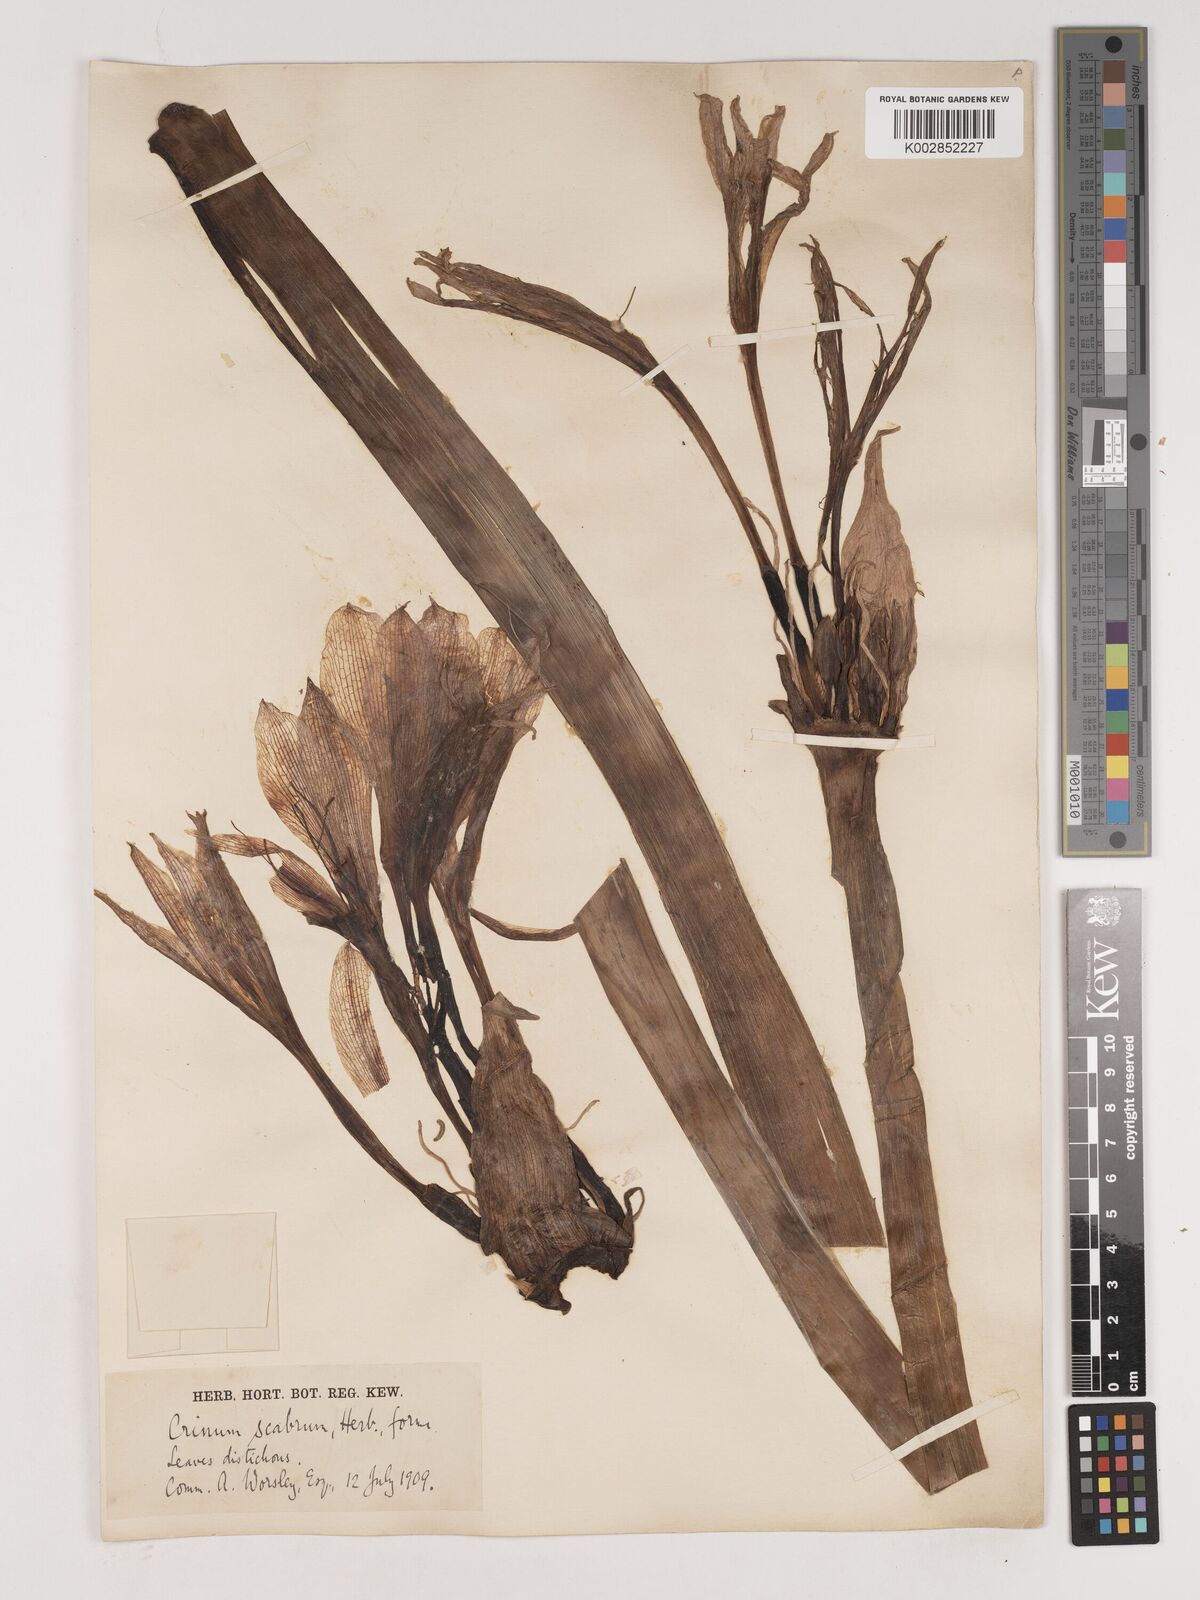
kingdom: Plantae
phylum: Tracheophyta
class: Liliopsida
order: Asparagales
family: Amaryllidaceae
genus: Crinum
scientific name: Crinum macowanii
